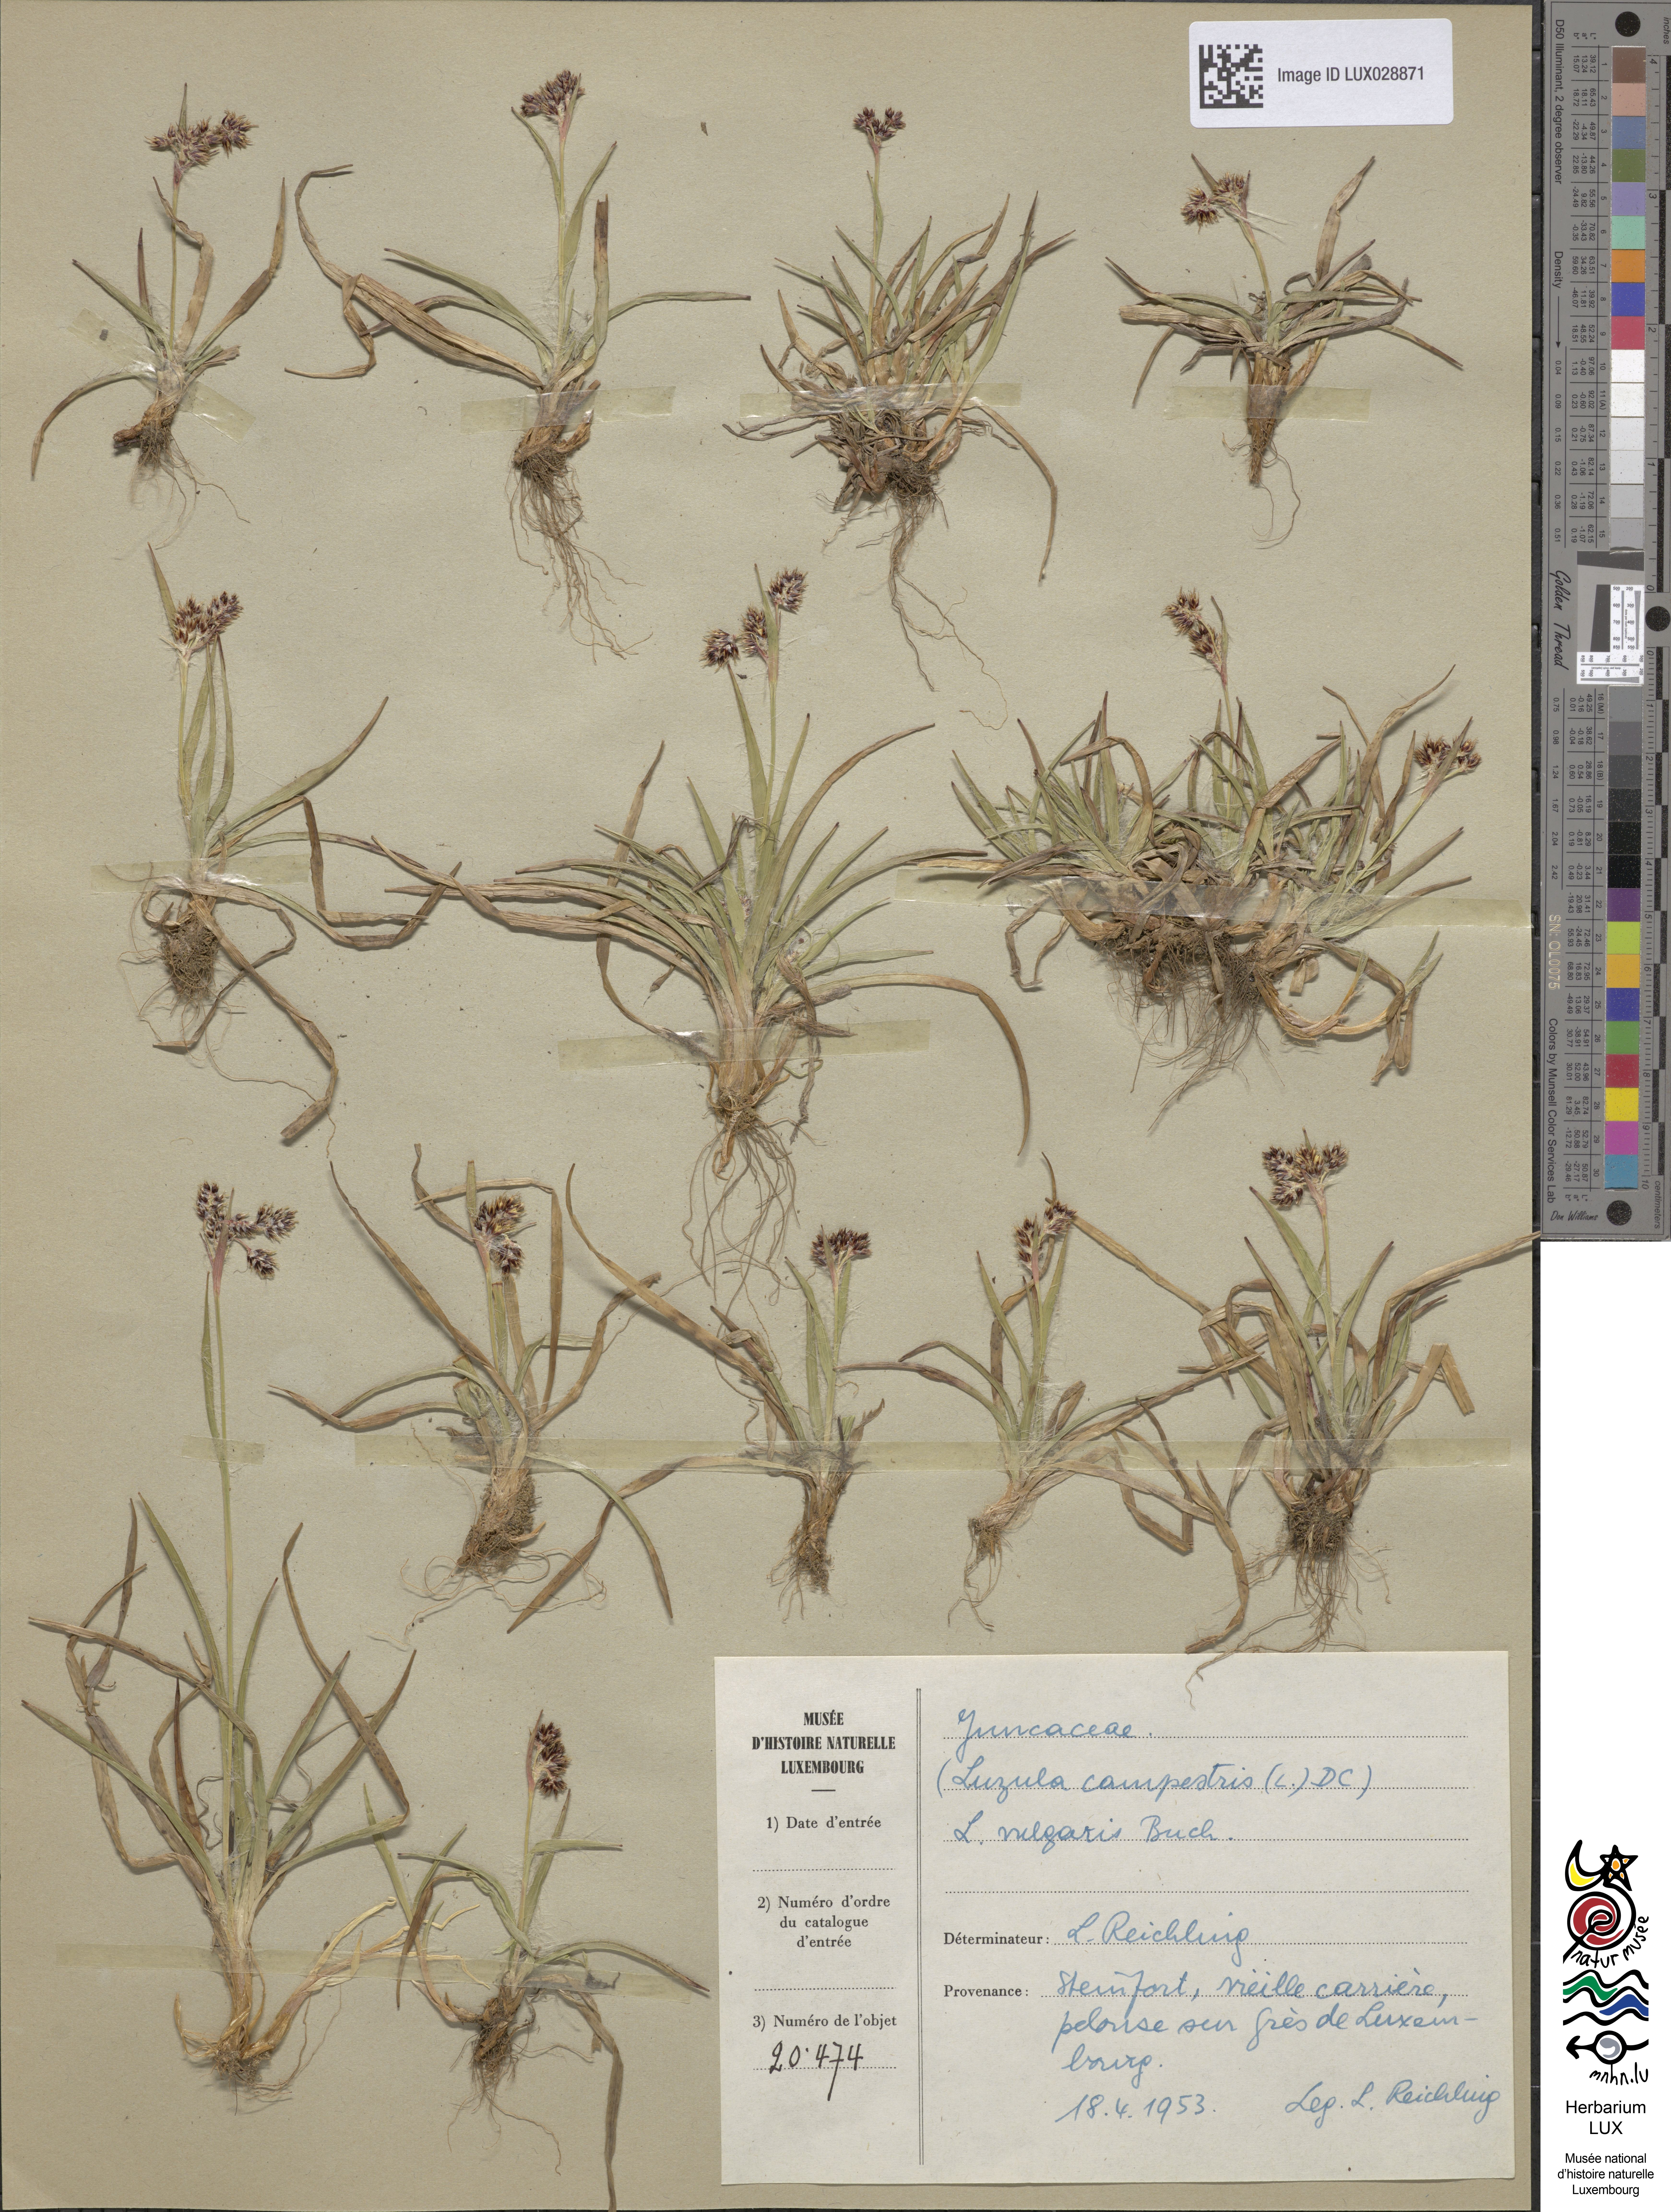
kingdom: Plantae
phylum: Tracheophyta
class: Liliopsida
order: Poales
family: Juncaceae
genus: Luzula
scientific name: Luzula campestris
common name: Field wood-rush
